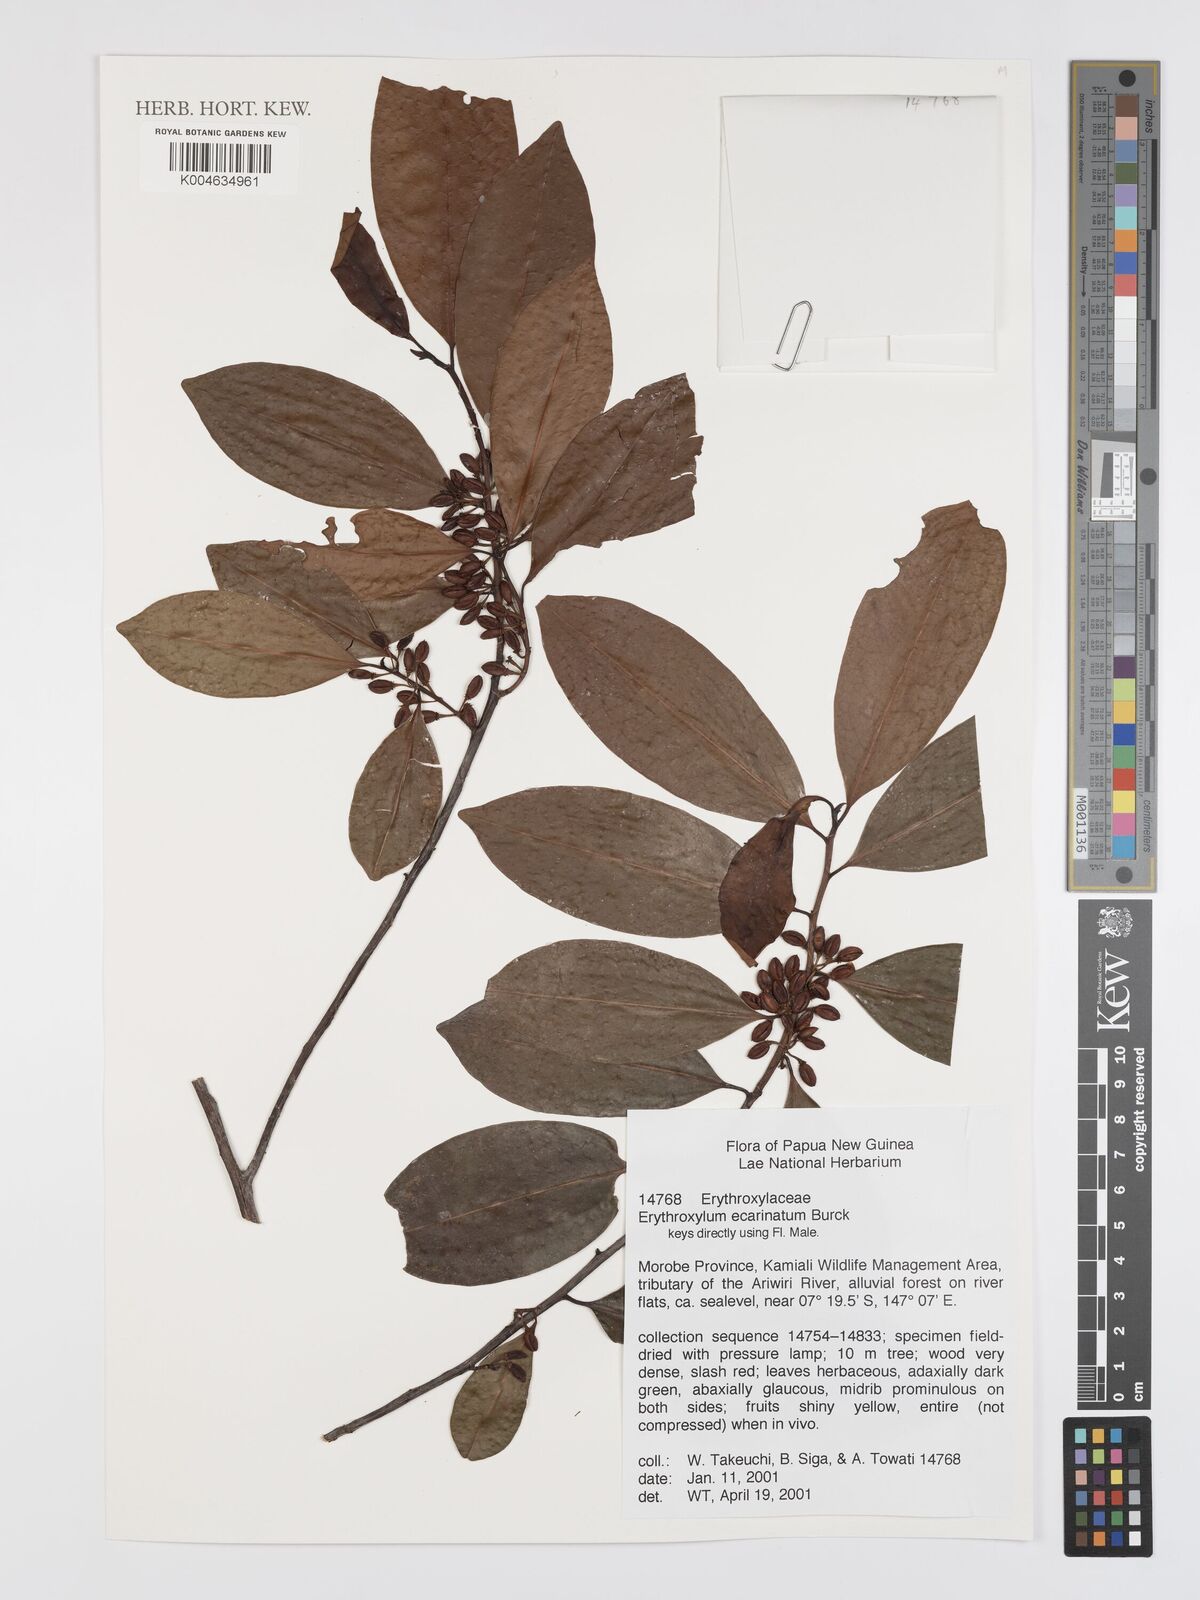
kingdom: Plantae
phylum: Tracheophyta
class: Magnoliopsida
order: Malpighiales
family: Erythroxylaceae
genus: Erythroxylum
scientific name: Erythroxylum ecarinatum
